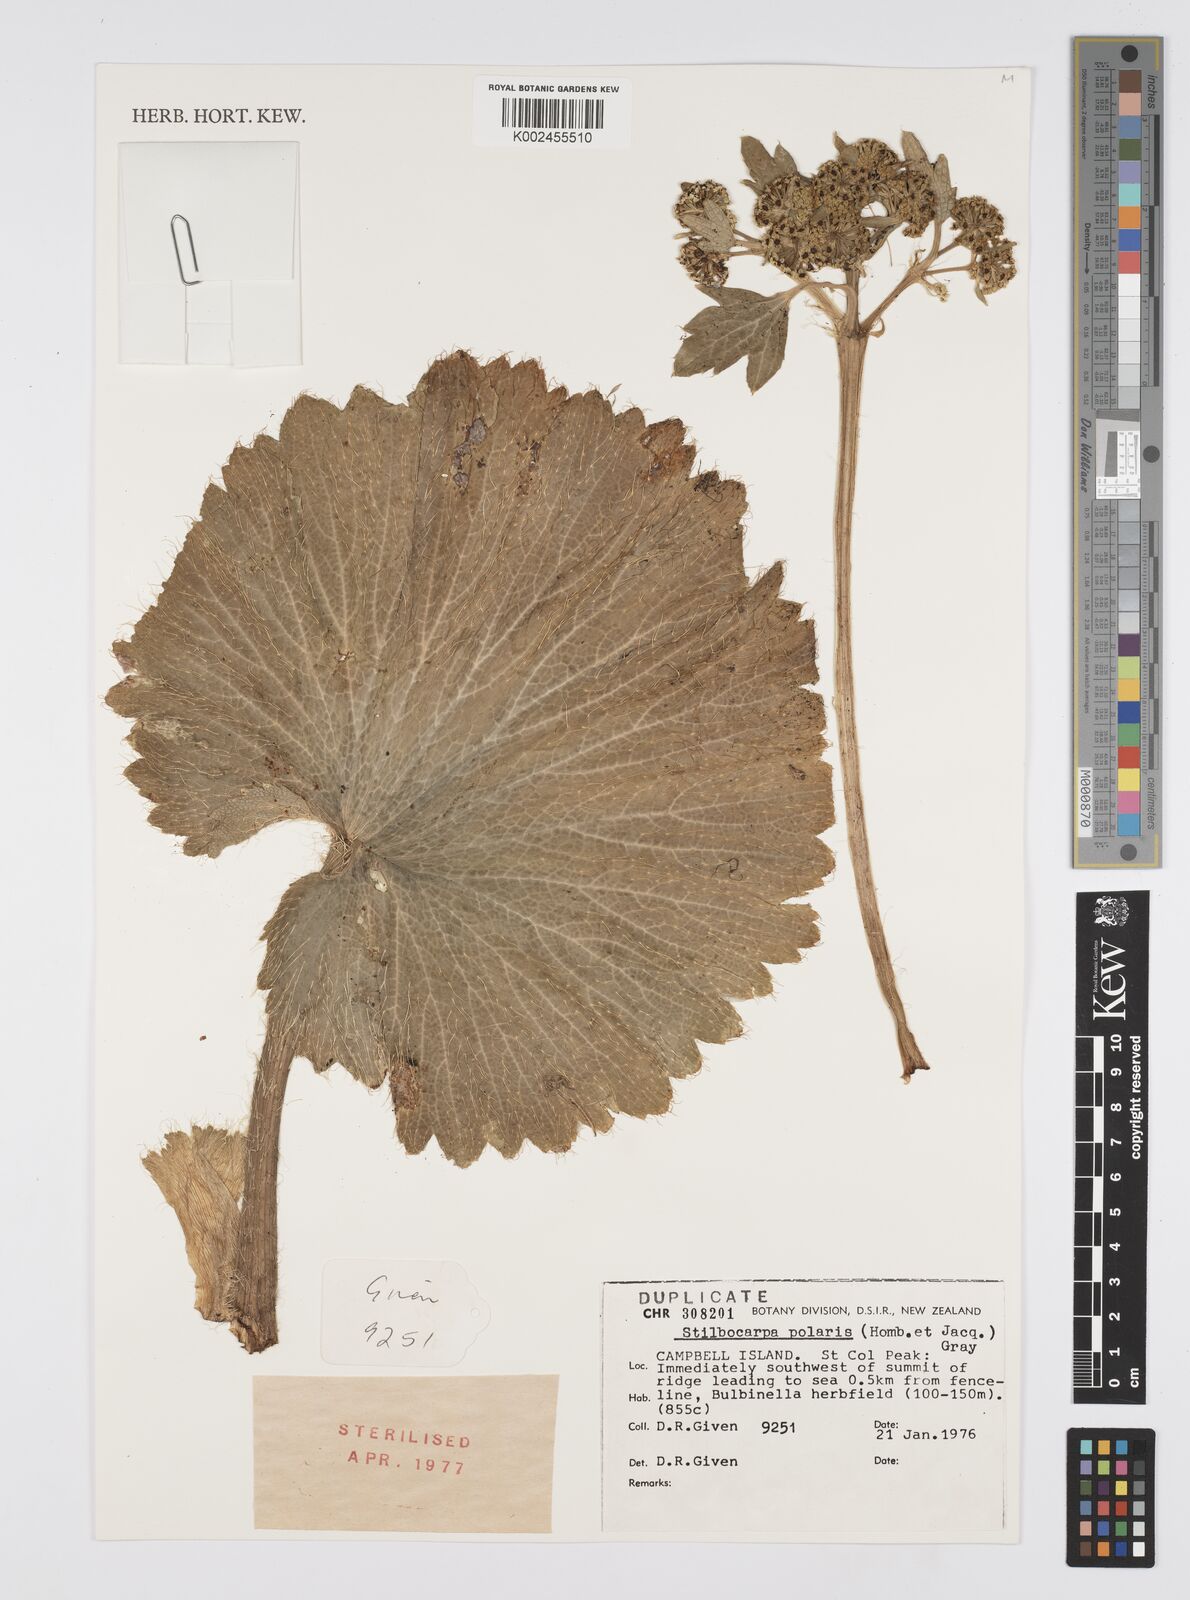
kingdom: Plantae
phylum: Tracheophyta
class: Magnoliopsida
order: Apiales
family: Araliaceae
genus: Stilbocarpa
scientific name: Stilbocarpa
